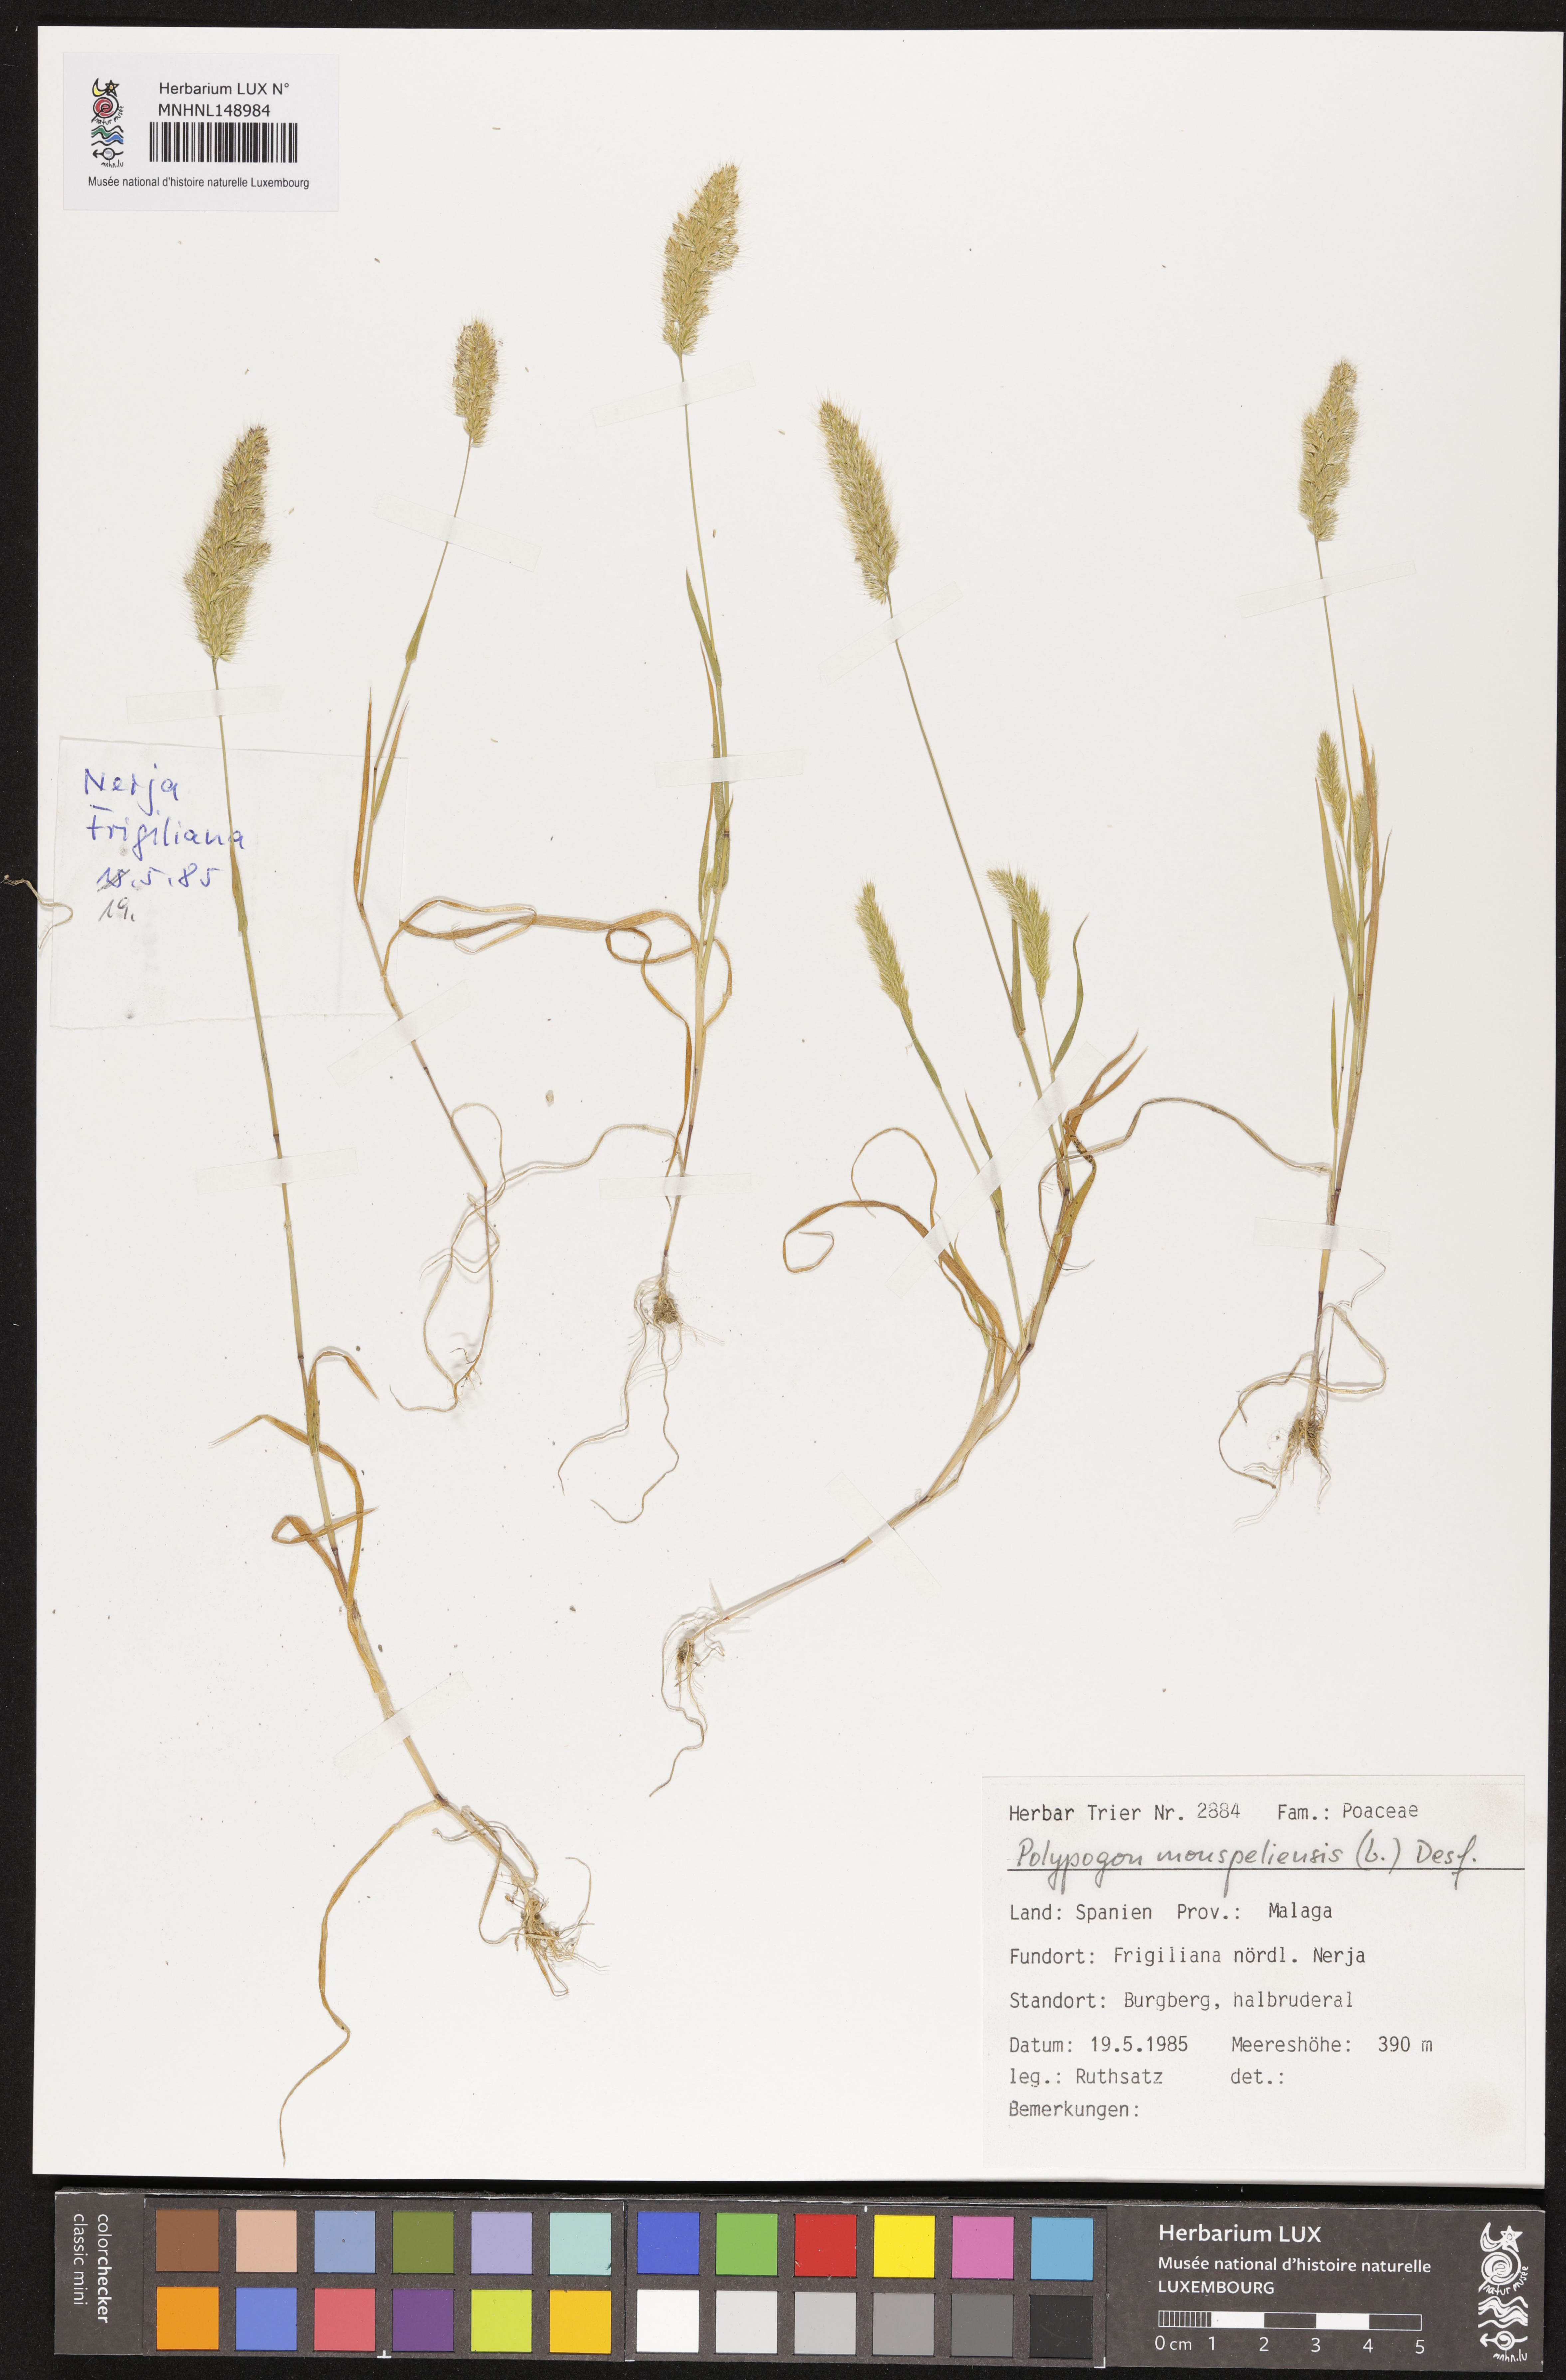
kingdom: Animalia
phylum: Arthropoda
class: Insecta
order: Lepidoptera
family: Erebidae
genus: Polypogon
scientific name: Polypogon
